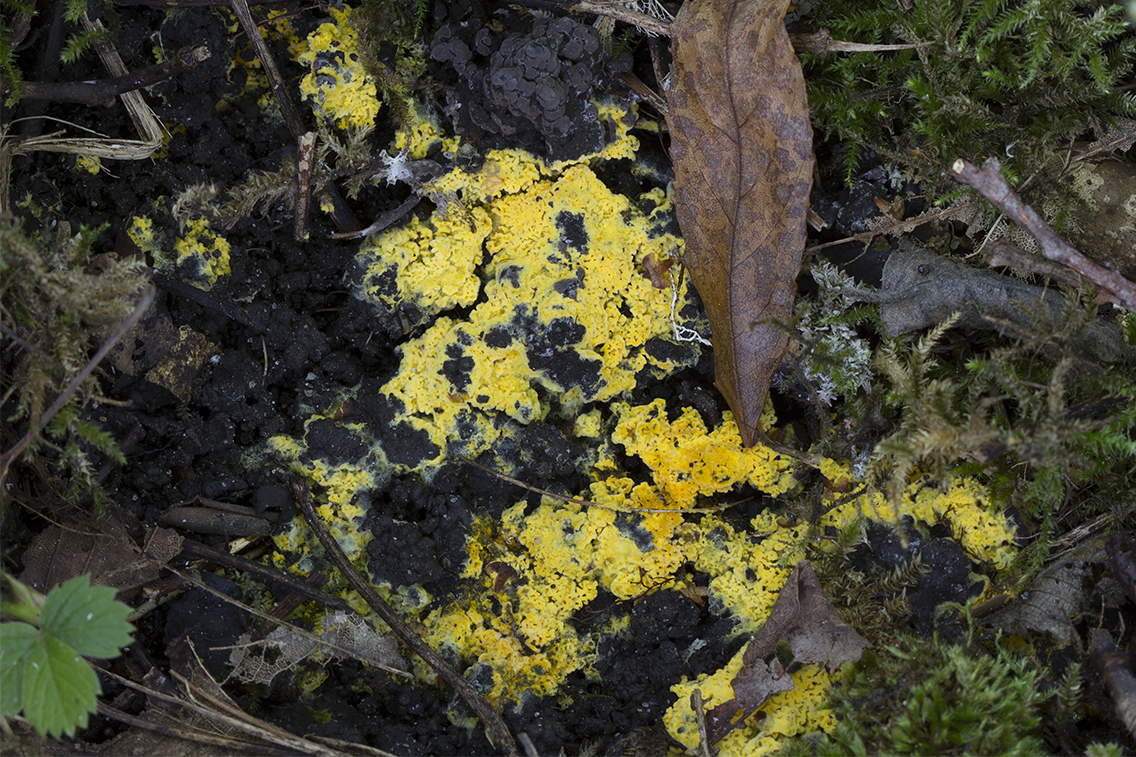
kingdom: Fungi
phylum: Basidiomycota
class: Agaricomycetes
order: Agaricales
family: Stephanosporaceae
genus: Lindtneria
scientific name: Lindtneria trachyspora
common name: labyrint-citrushinde
